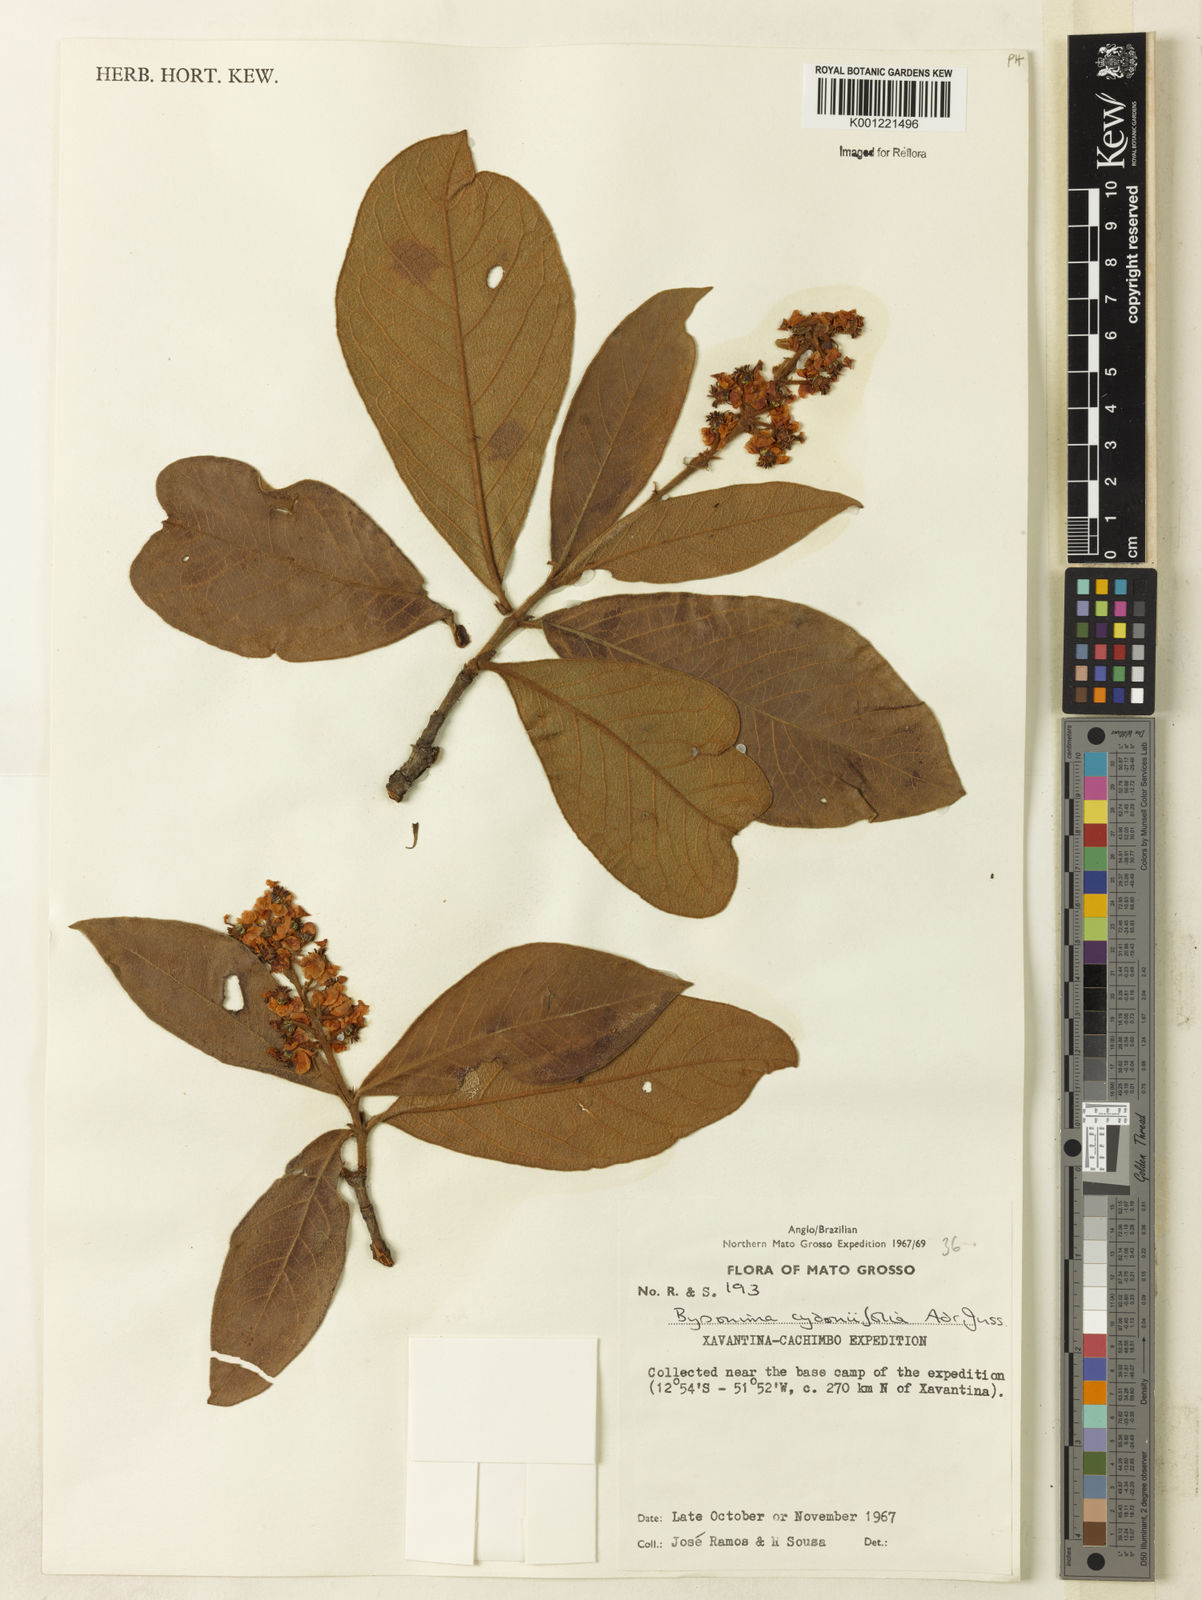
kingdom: Plantae
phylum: Tracheophyta
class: Magnoliopsida
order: Malpighiales
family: Malpighiaceae
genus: Byrsonima
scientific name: Byrsonima cydoniifolia
